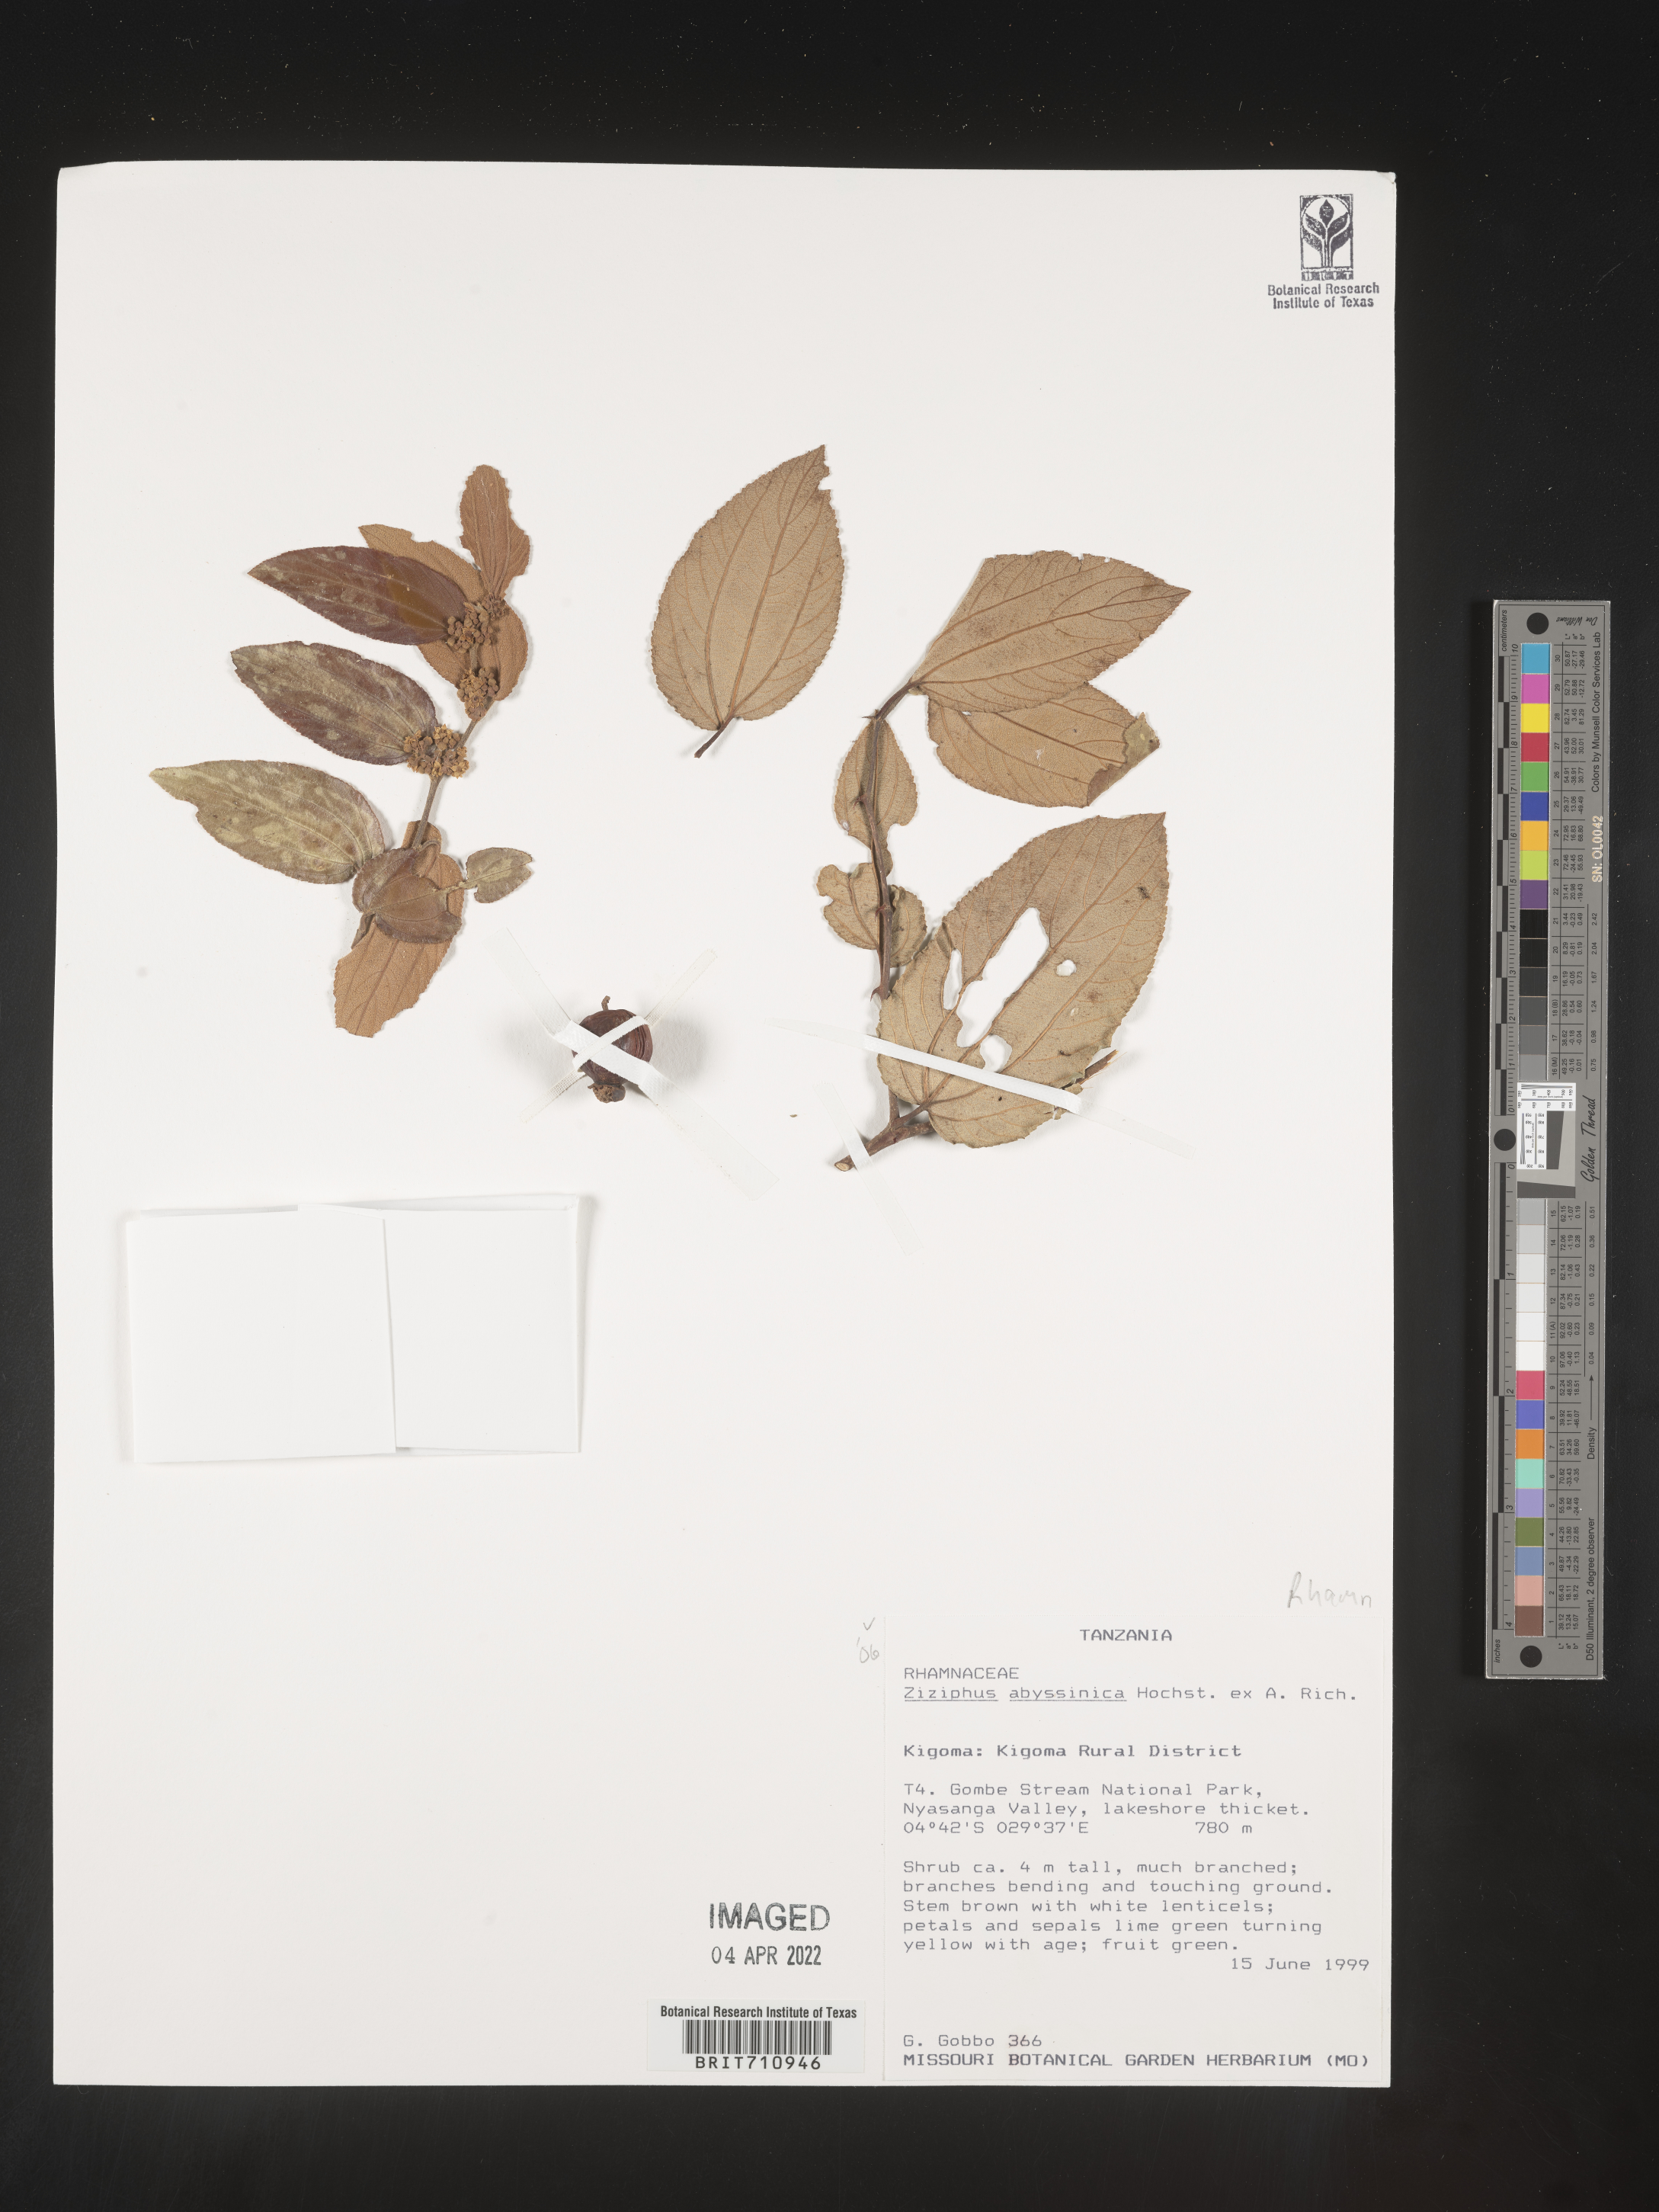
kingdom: Plantae
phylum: Tracheophyta
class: Magnoliopsida
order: Rosales
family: Rhamnaceae
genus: Ziziphus
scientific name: Ziziphus
